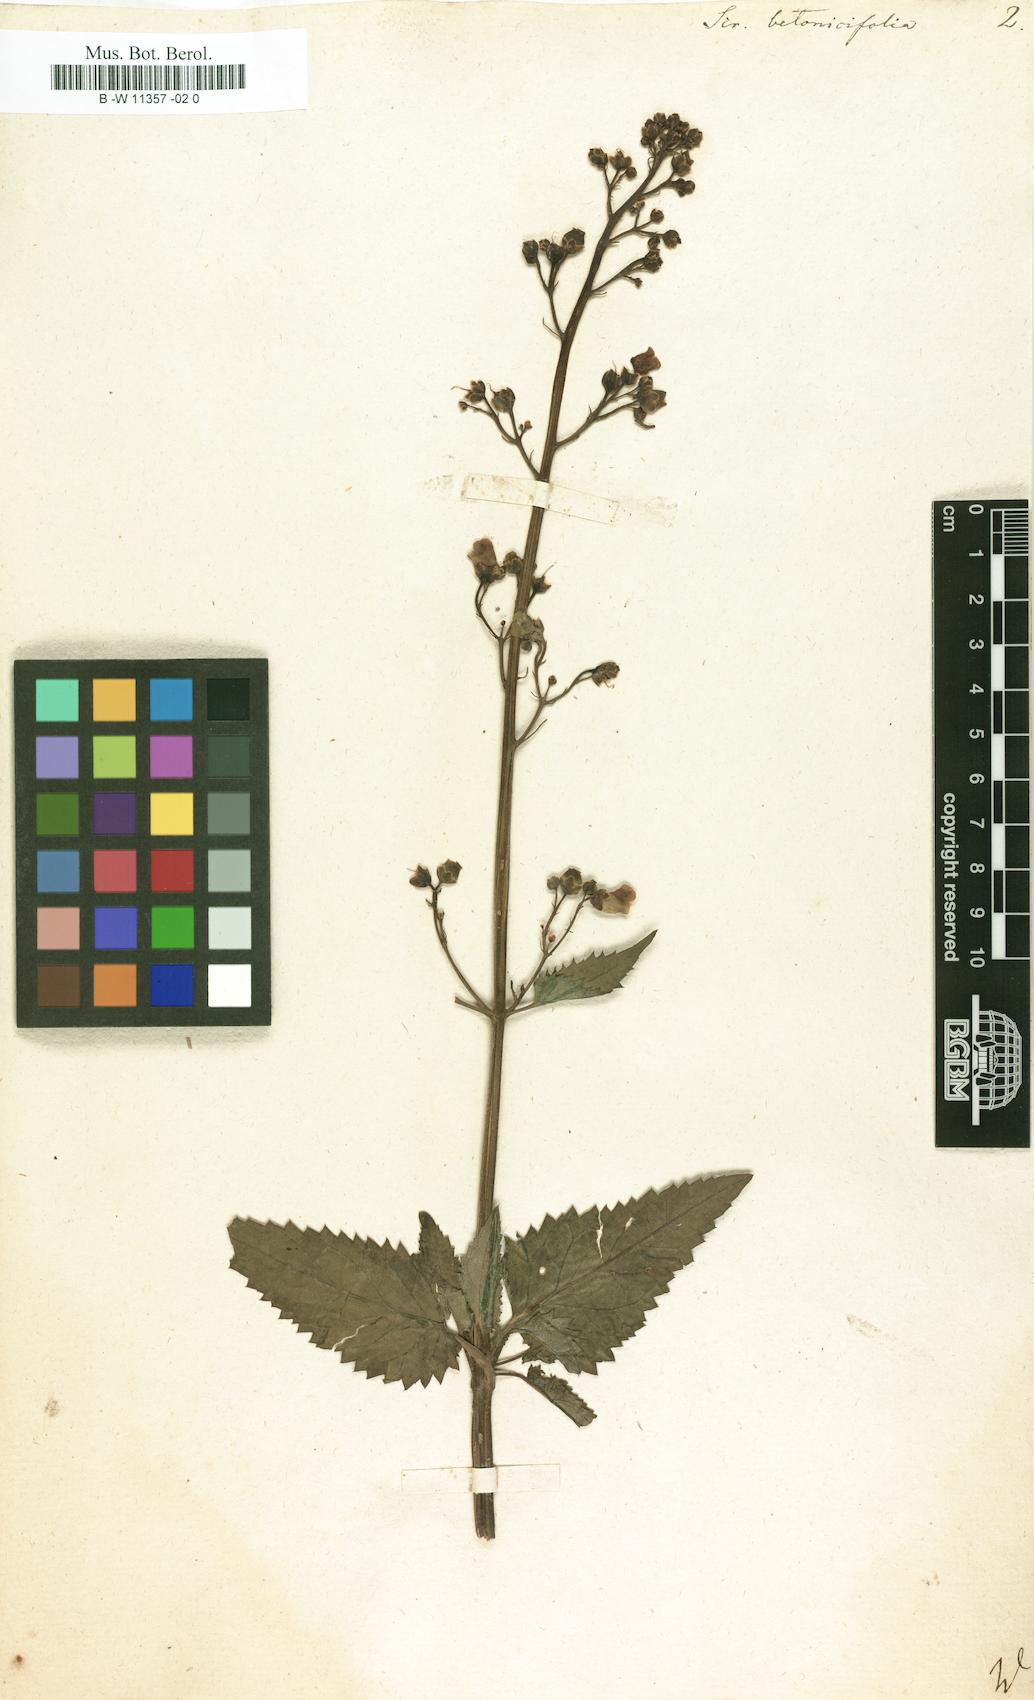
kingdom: Plantae
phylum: Tracheophyta
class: Magnoliopsida
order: Lamiales
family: Scrophulariaceae
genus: Scrophularia
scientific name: Scrophularia
